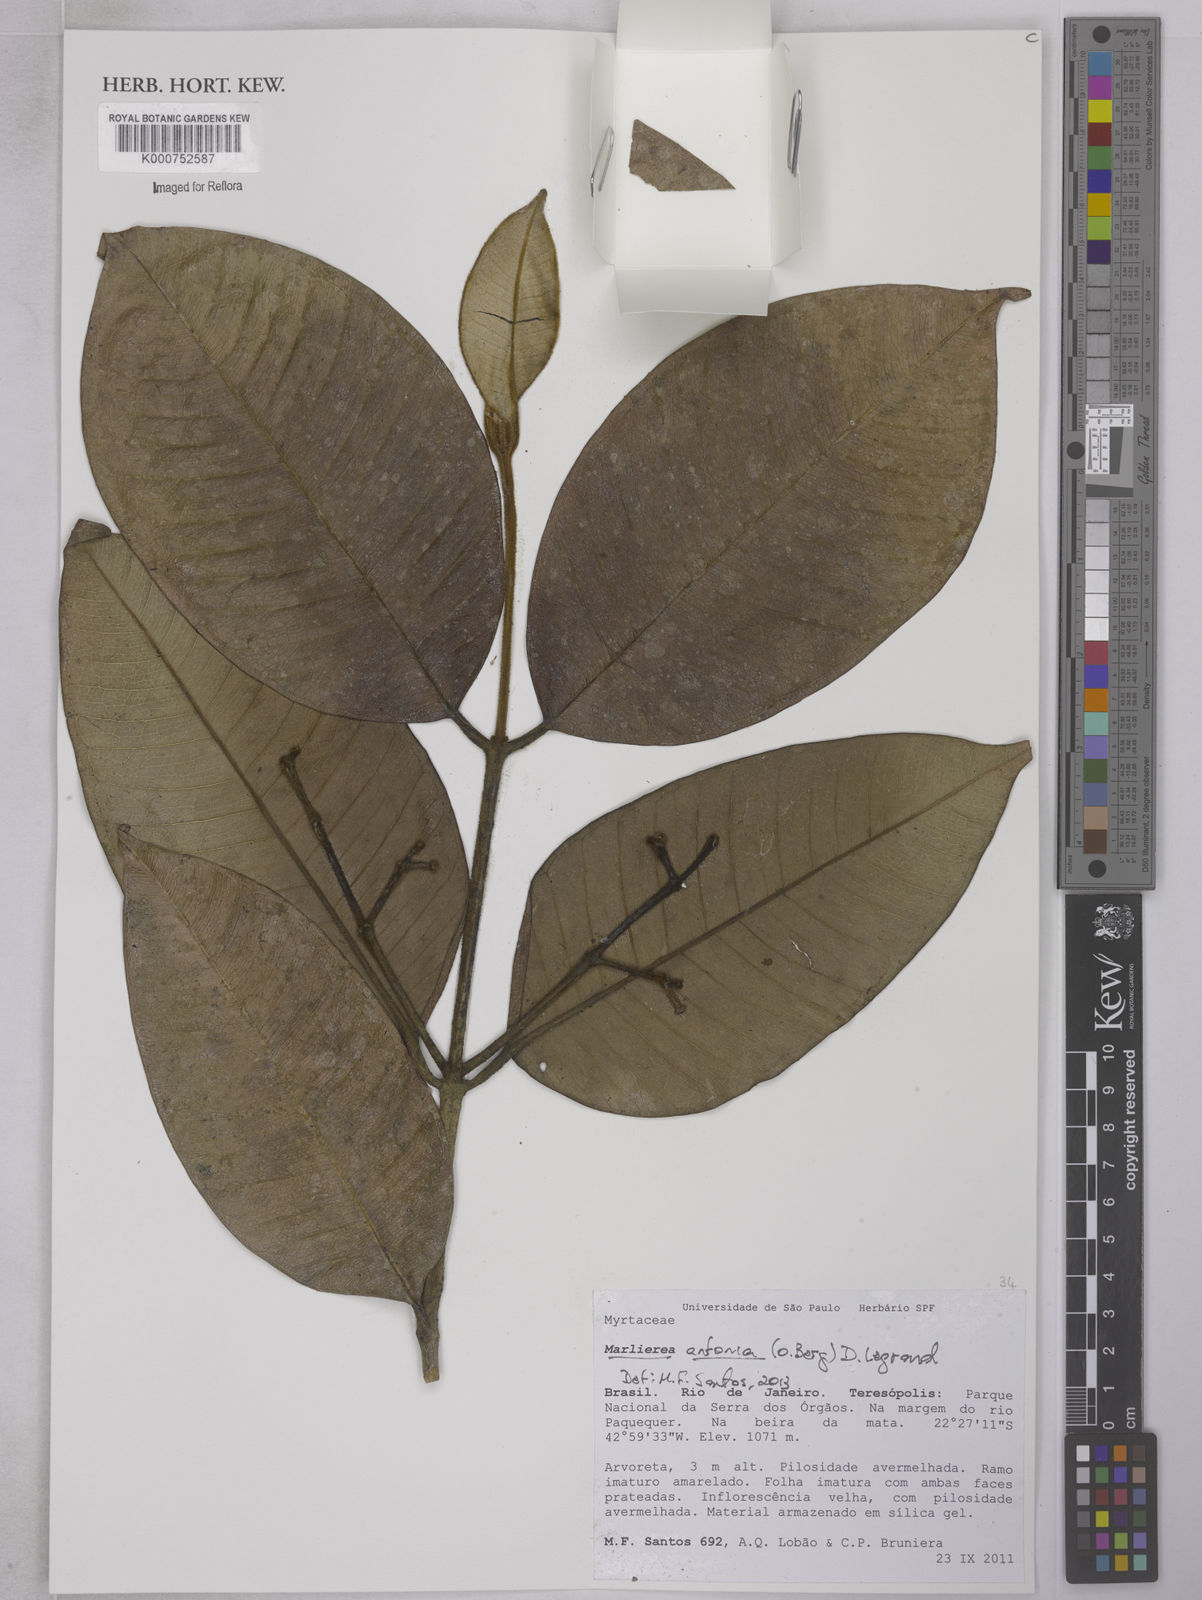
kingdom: Plantae
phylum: Tracheophyta
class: Magnoliopsida
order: Myrtales
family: Myrtaceae
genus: Myrcia
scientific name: Myrcia antonia
